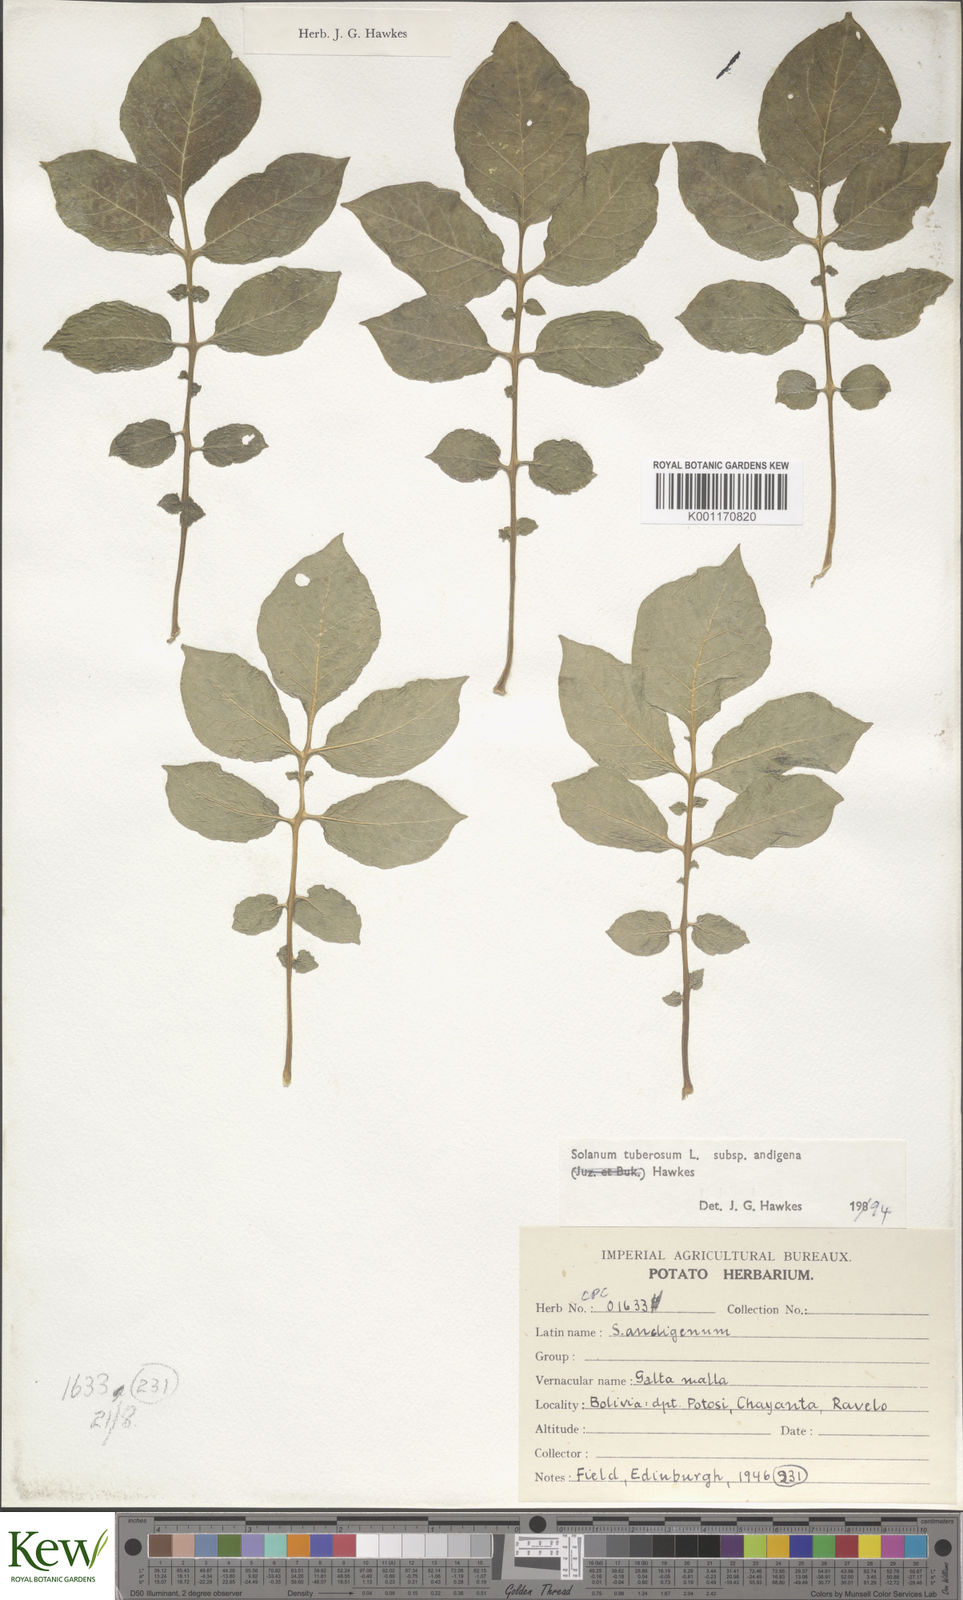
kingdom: Plantae
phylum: Tracheophyta
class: Magnoliopsida
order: Solanales
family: Solanaceae
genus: Solanum
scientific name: Solanum tuberosum
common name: Potato
